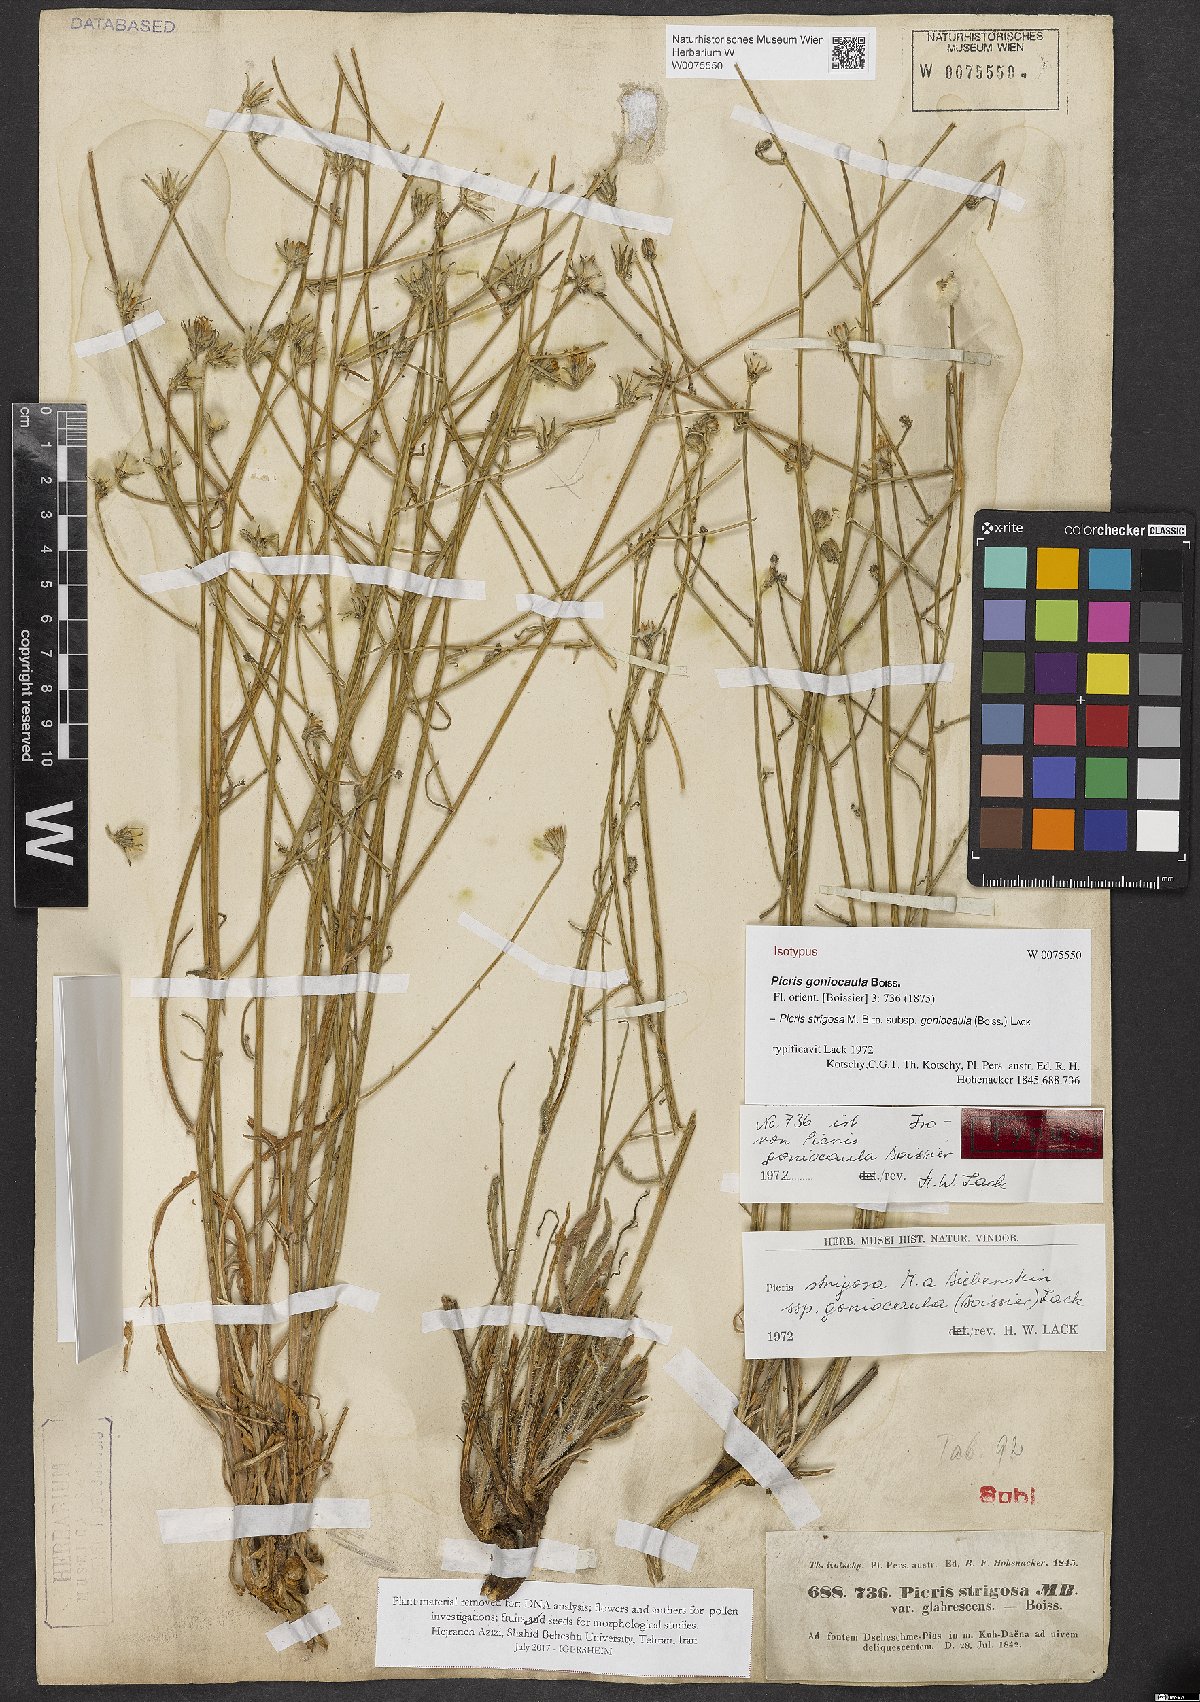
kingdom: Plantae
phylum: Tracheophyta
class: Magnoliopsida
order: Asterales
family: Asteraceae
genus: Picris
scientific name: Picris strigosa
